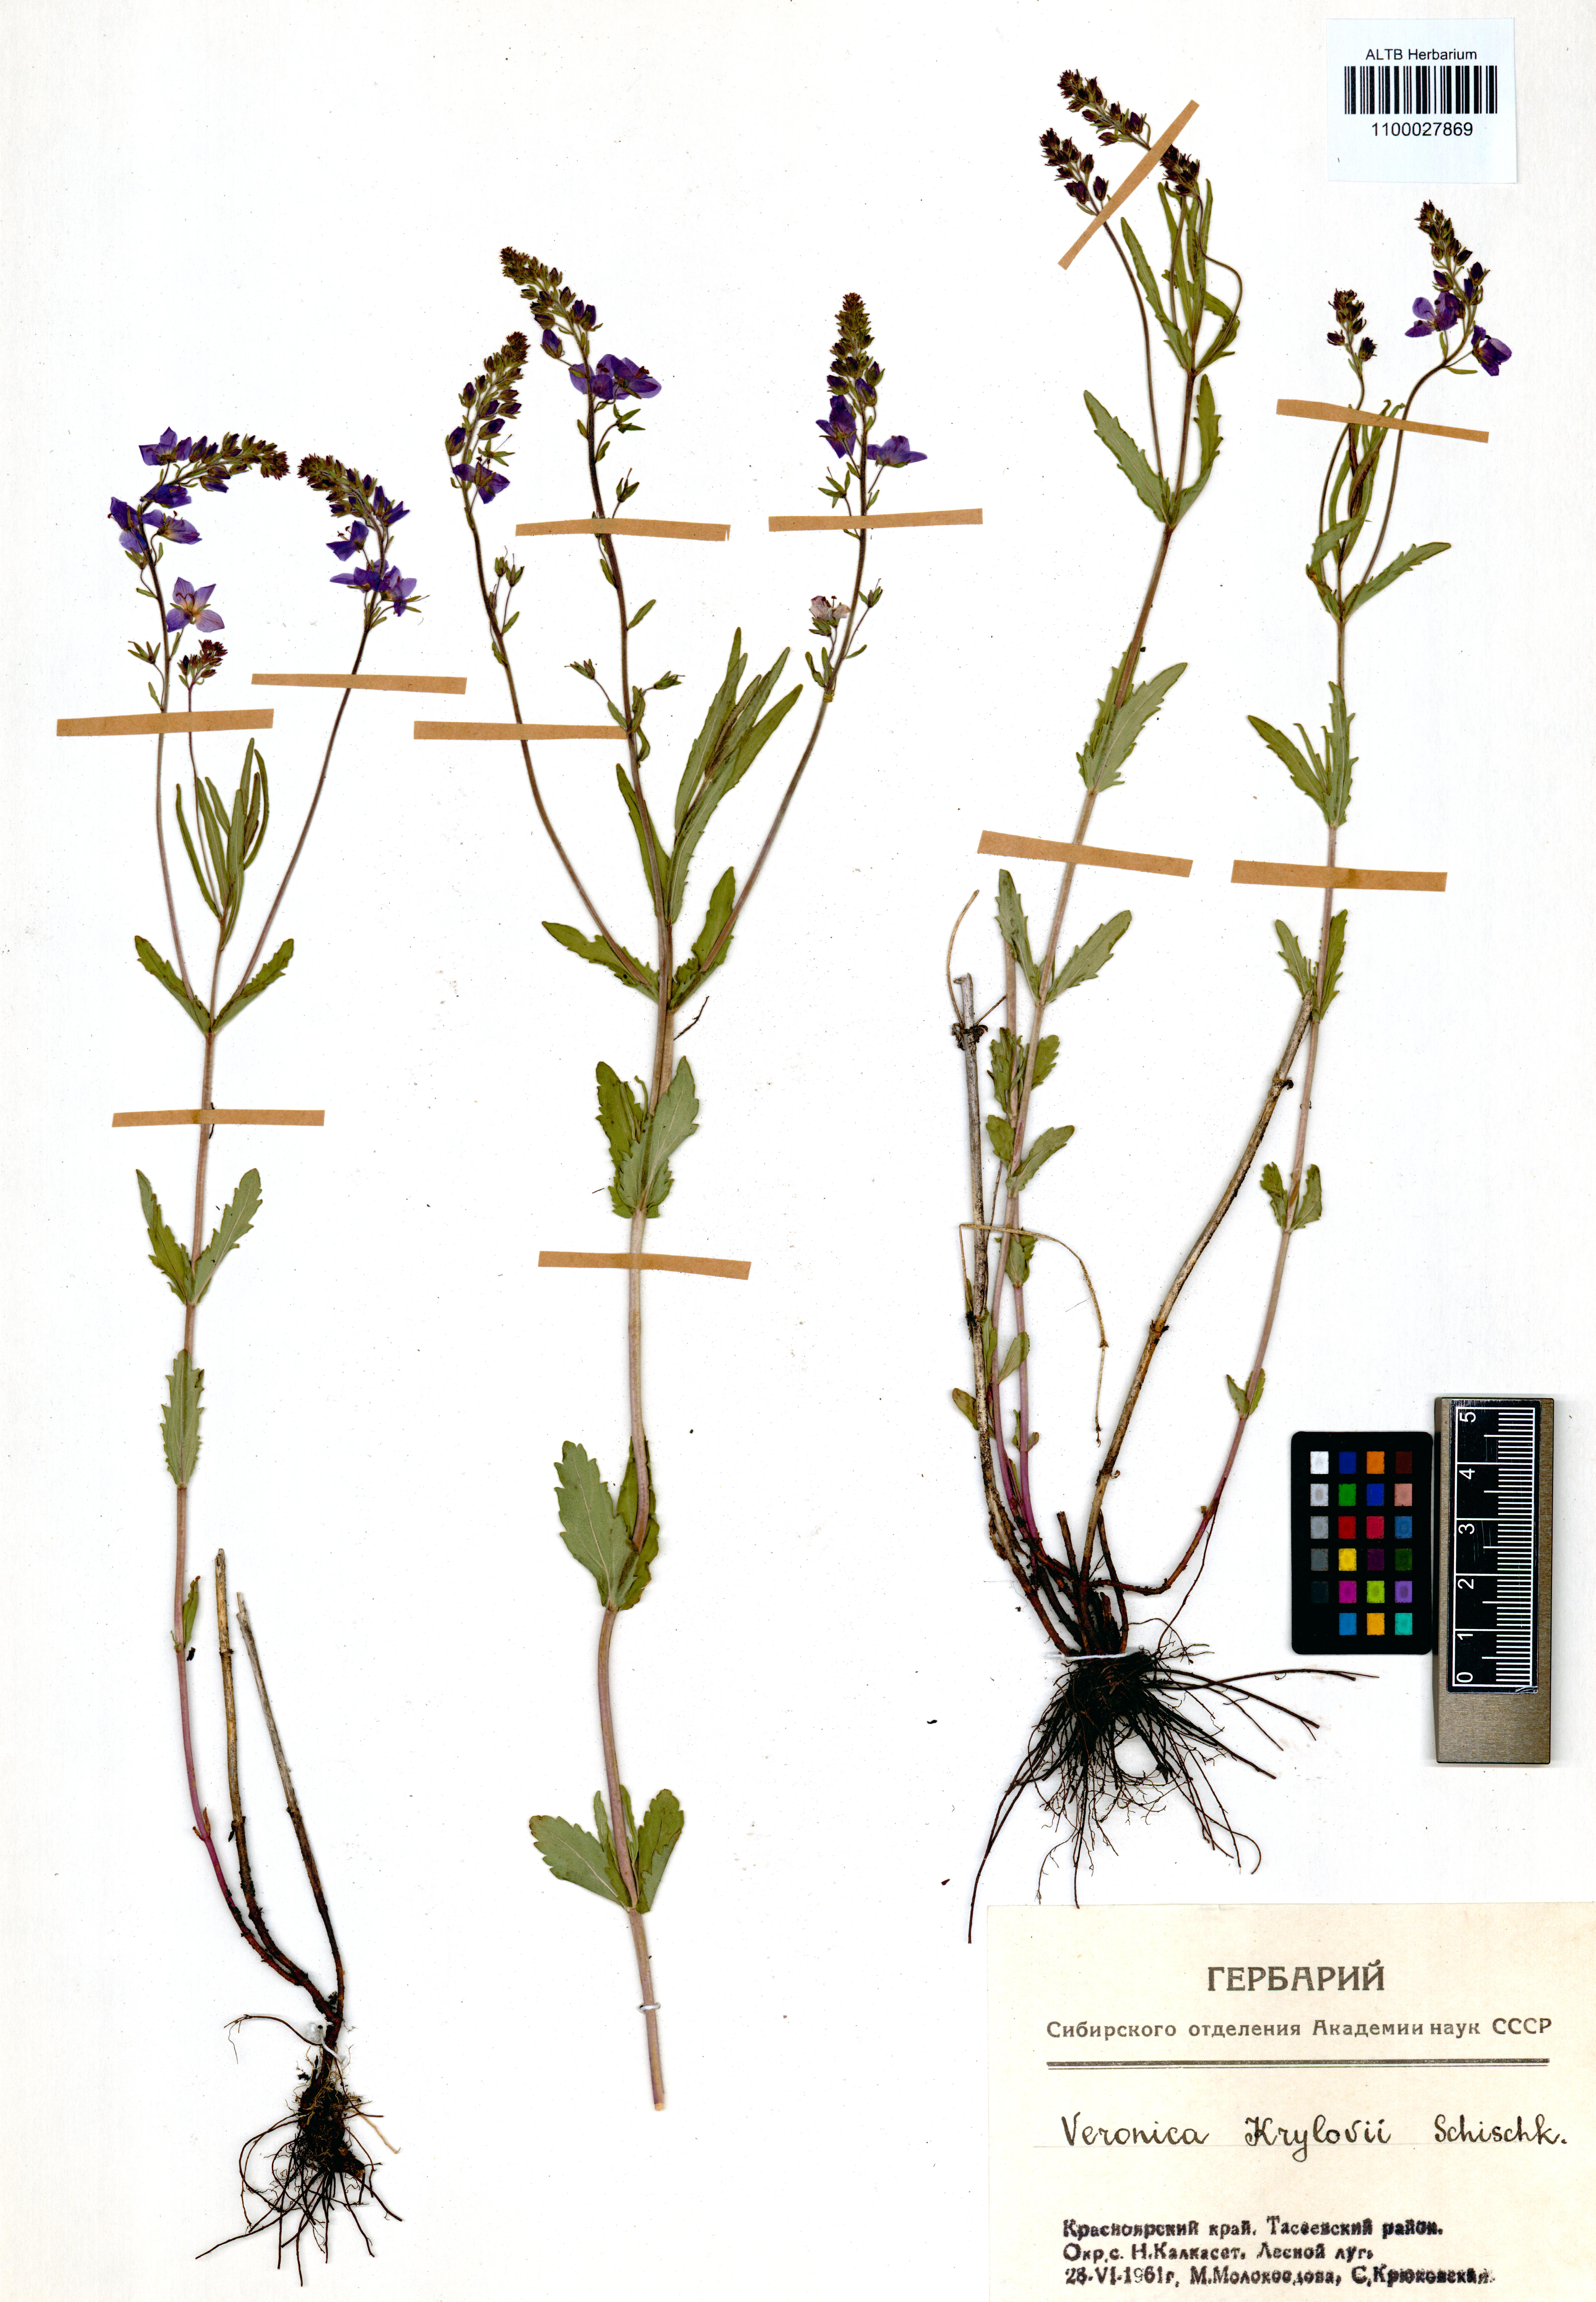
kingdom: Plantae
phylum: Tracheophyta
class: Magnoliopsida
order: Brassicales
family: Brassicaceae
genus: Strigosella
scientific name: Strigosella brevipes
